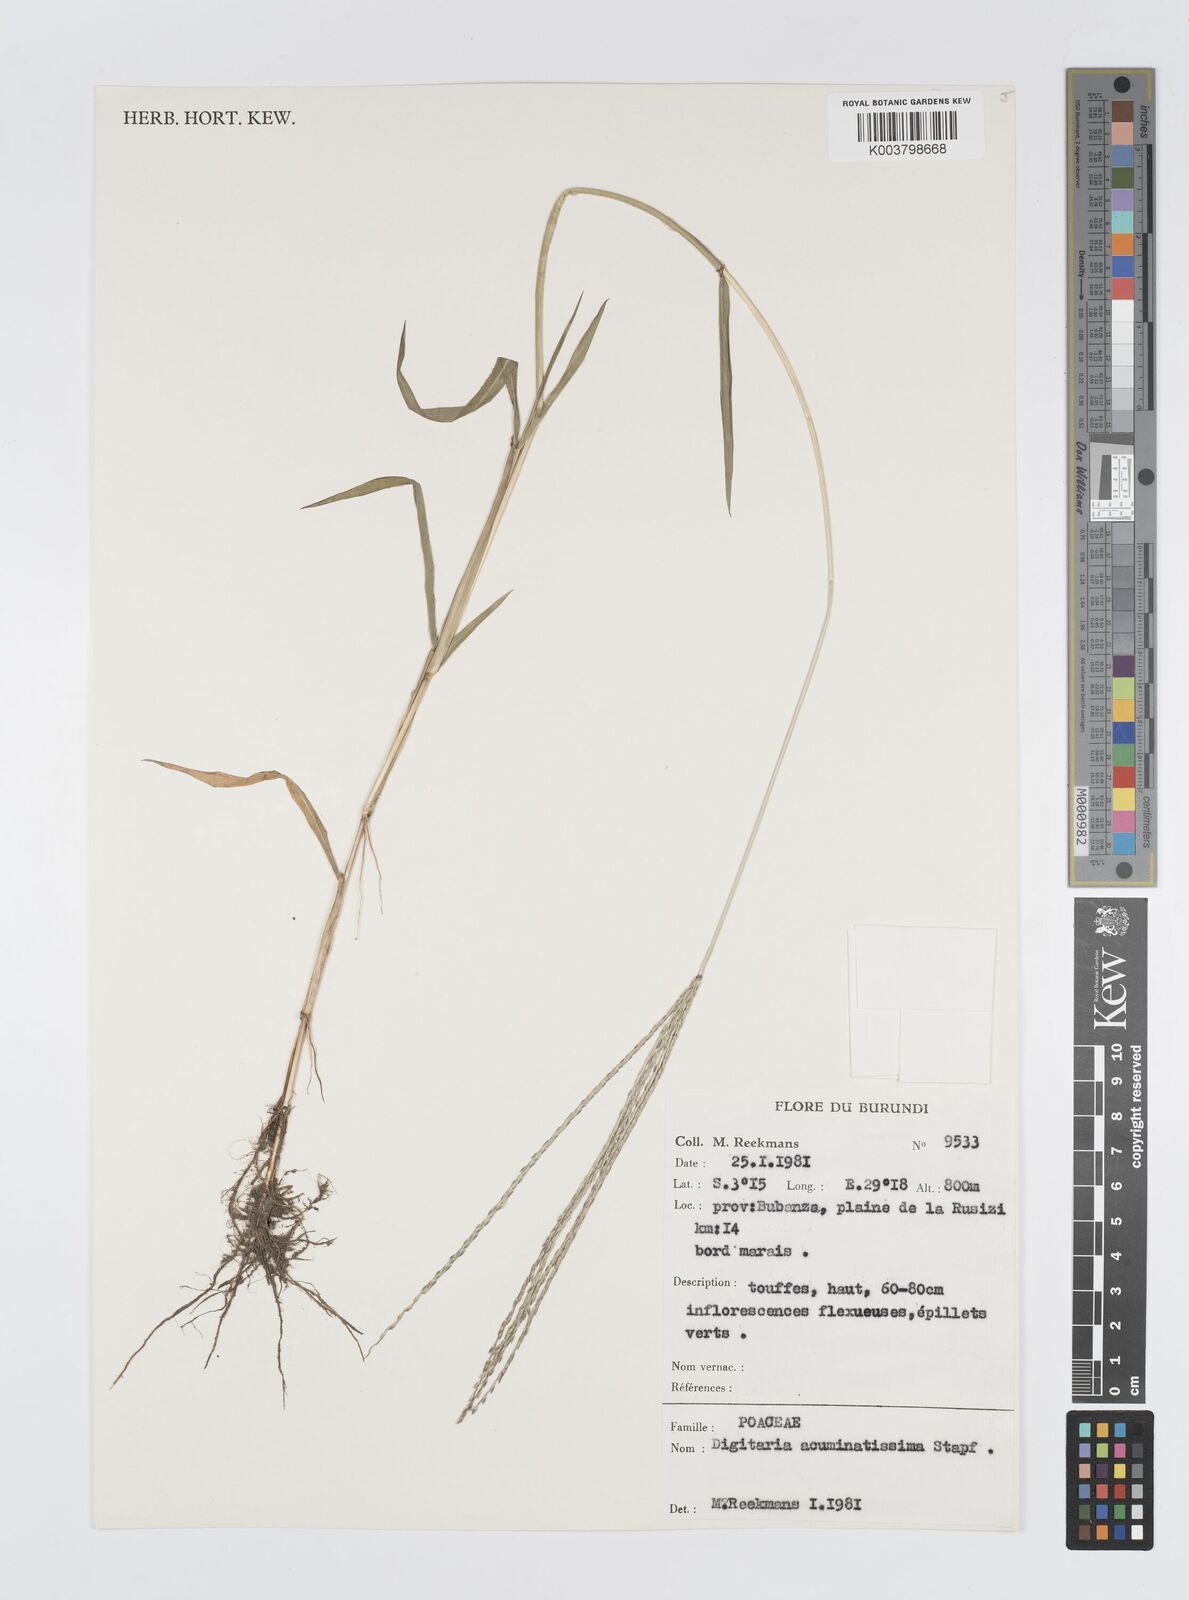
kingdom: Plantae
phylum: Tracheophyta
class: Liliopsida
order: Poales
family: Poaceae
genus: Digitaria
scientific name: Digitaria acuminatissima
